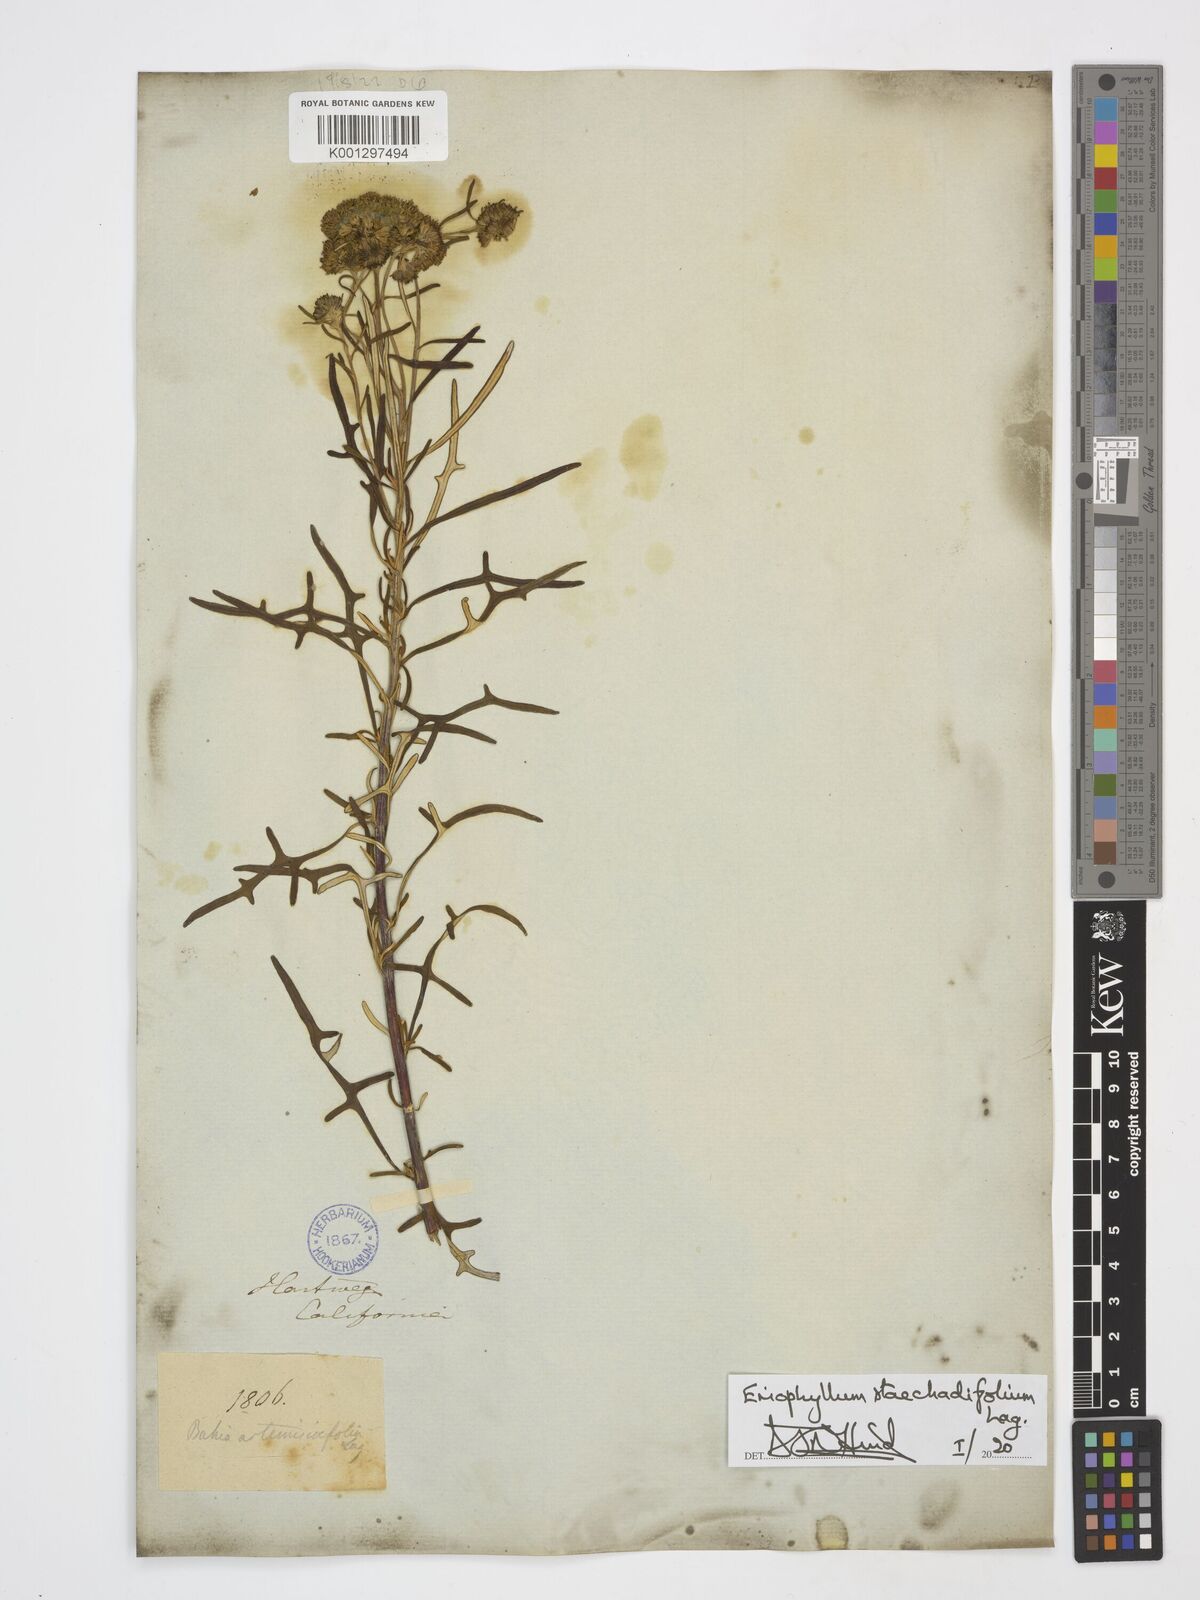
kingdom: Plantae
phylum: Tracheophyta
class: Magnoliopsida
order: Asterales
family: Asteraceae
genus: Eriophyllum
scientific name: Eriophyllum staechadifolium
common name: Lizardtail
